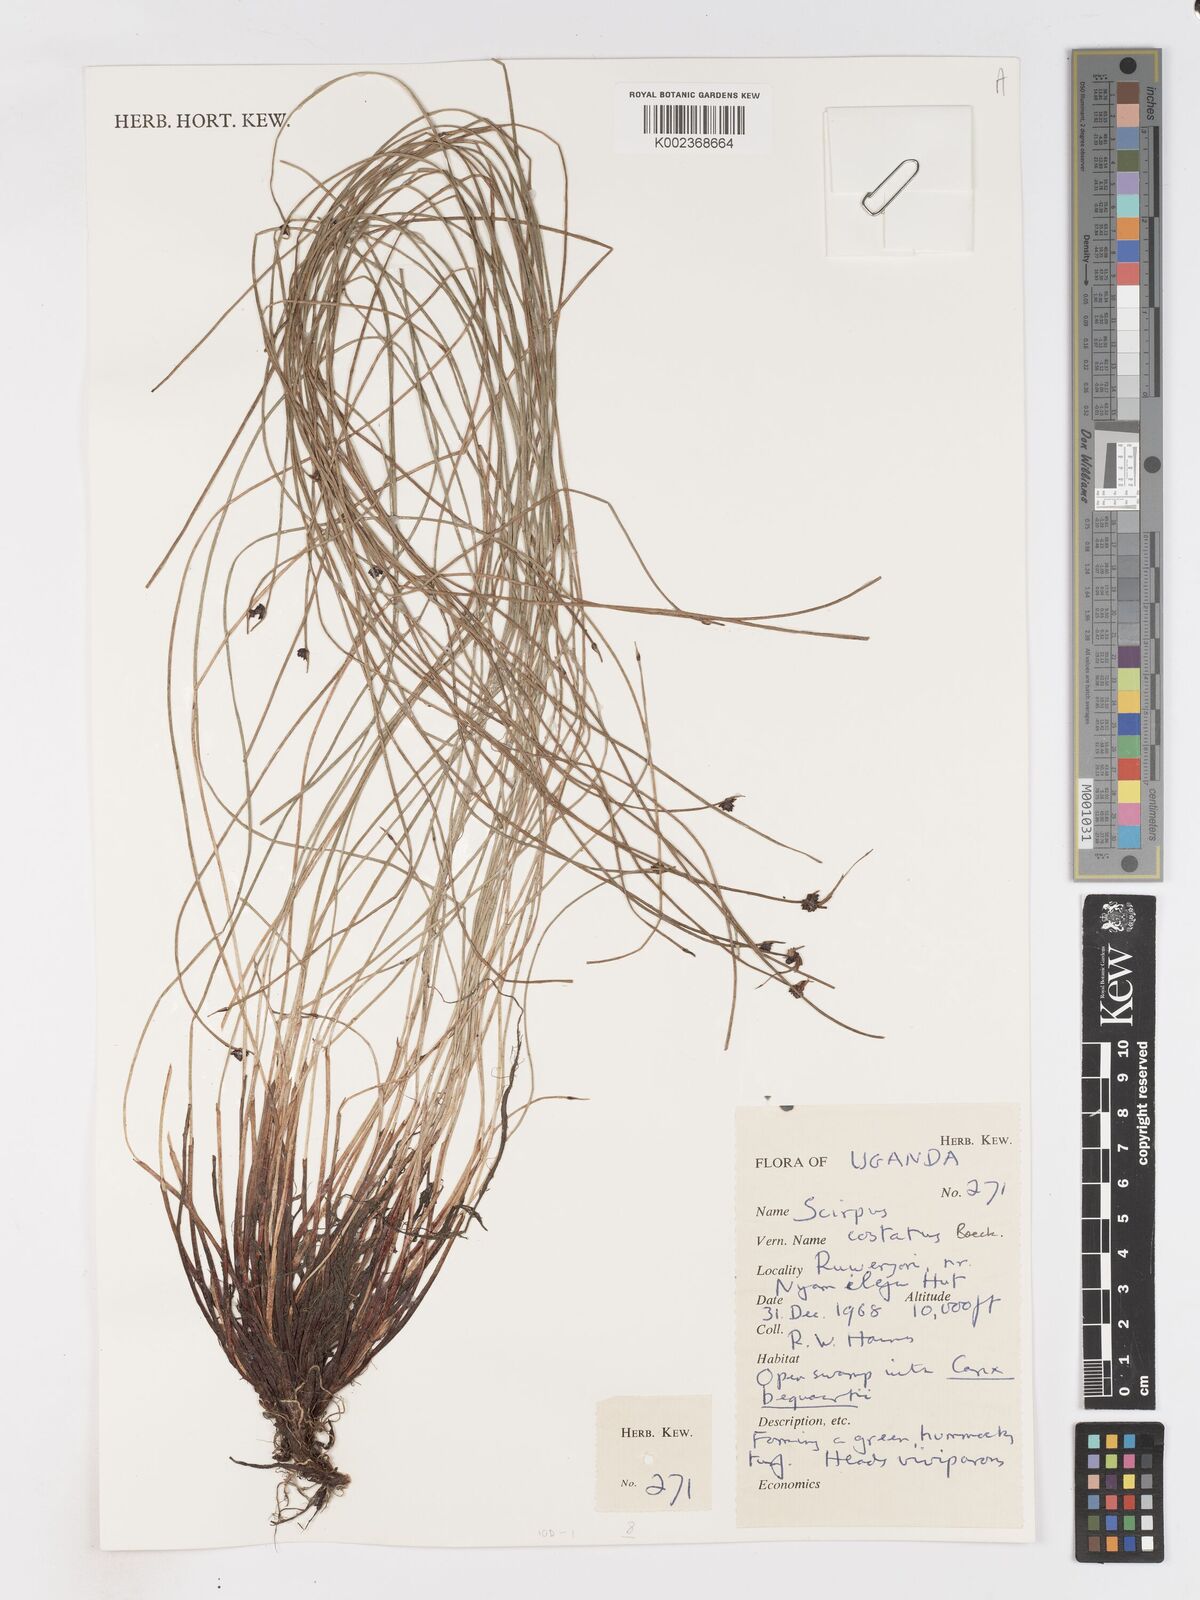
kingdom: Plantae
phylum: Tracheophyta
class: Liliopsida
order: Poales
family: Cyperaceae
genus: Isolepis
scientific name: Isolepis costata
